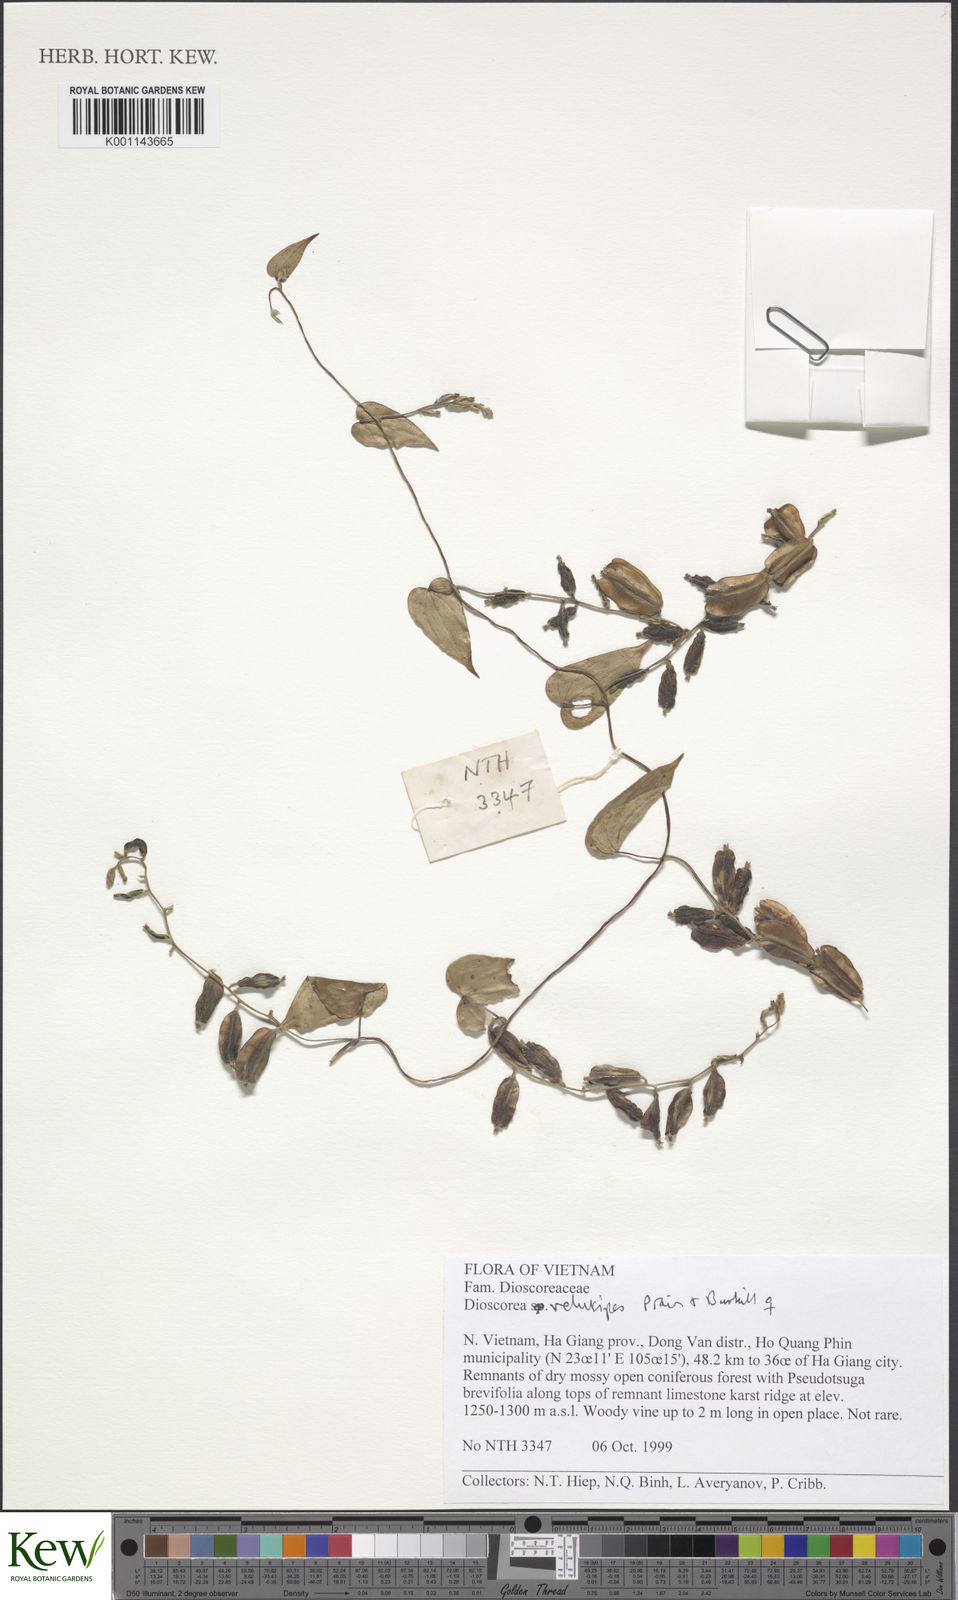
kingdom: Plantae
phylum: Tracheophyta
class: Liliopsida
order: Dioscoreales
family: Dioscoreaceae
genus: Dioscorea
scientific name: Dioscorea velutipes
